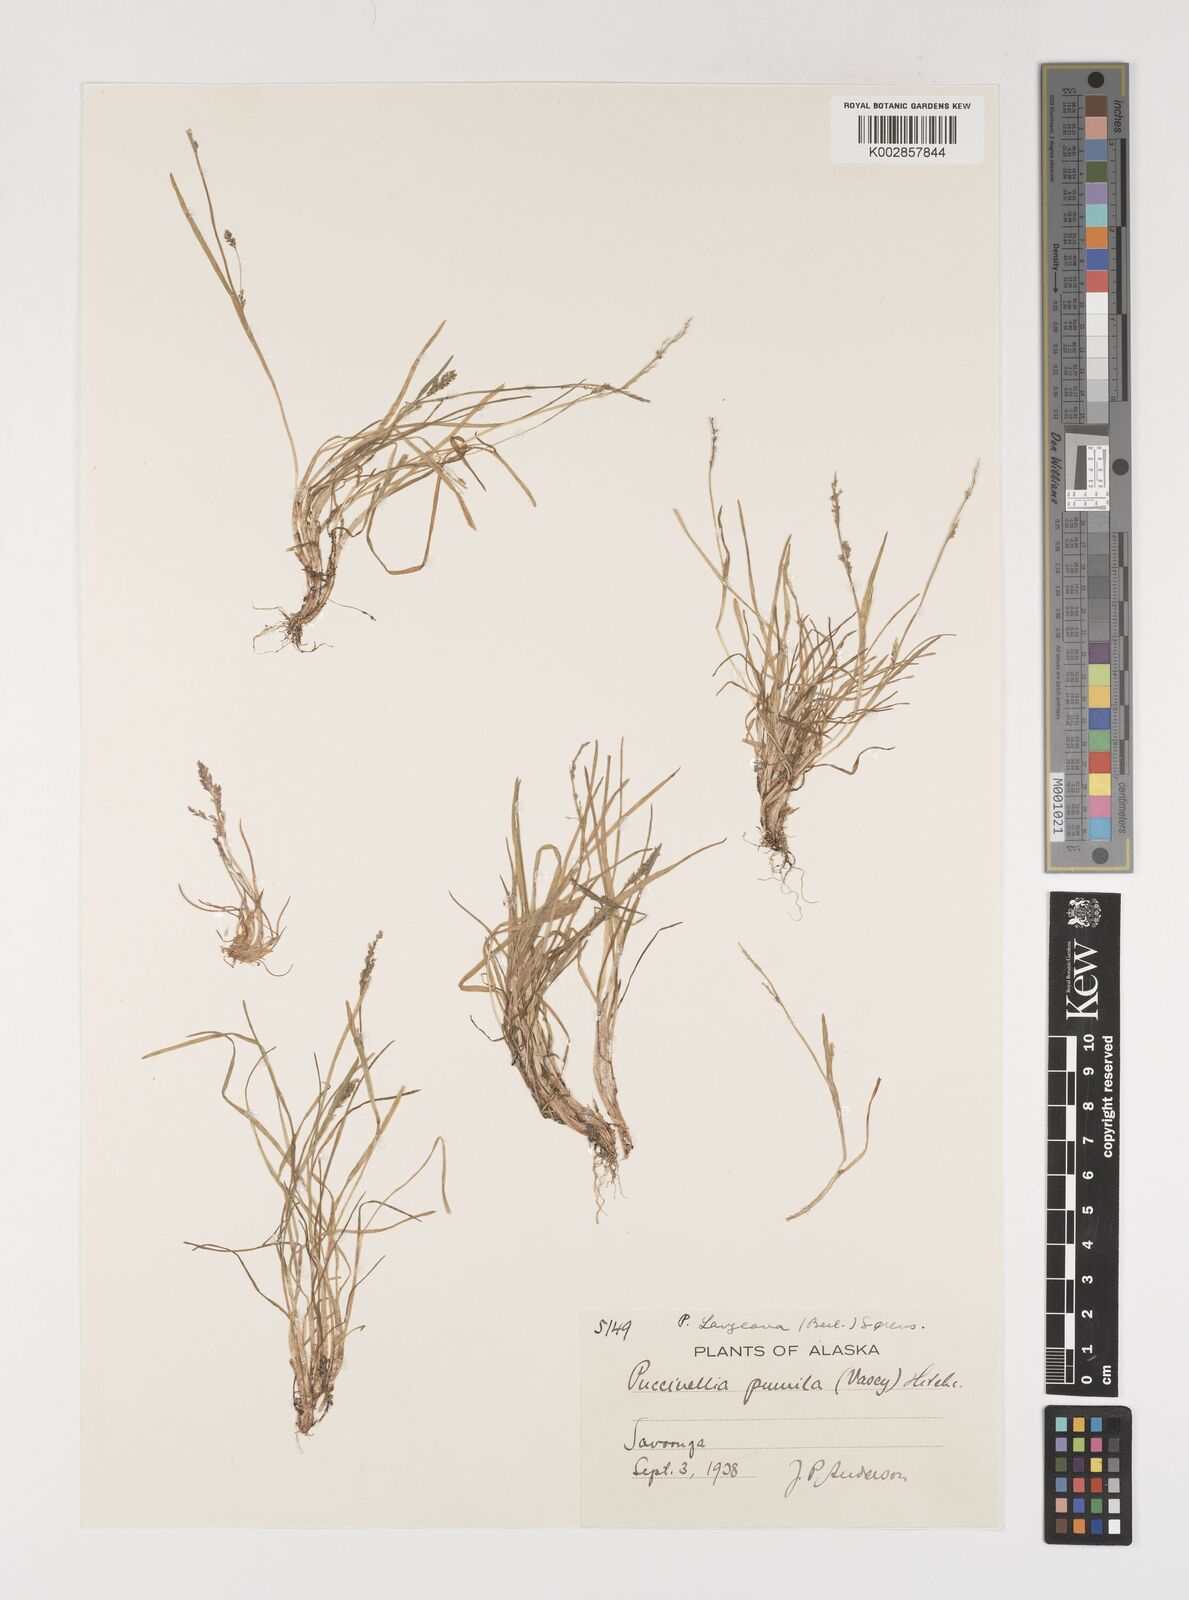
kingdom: Plantae
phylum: Tracheophyta
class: Liliopsida
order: Poales
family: Poaceae
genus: Puccinellia
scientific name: Puccinellia tenella
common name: Tundra alkaligrass
